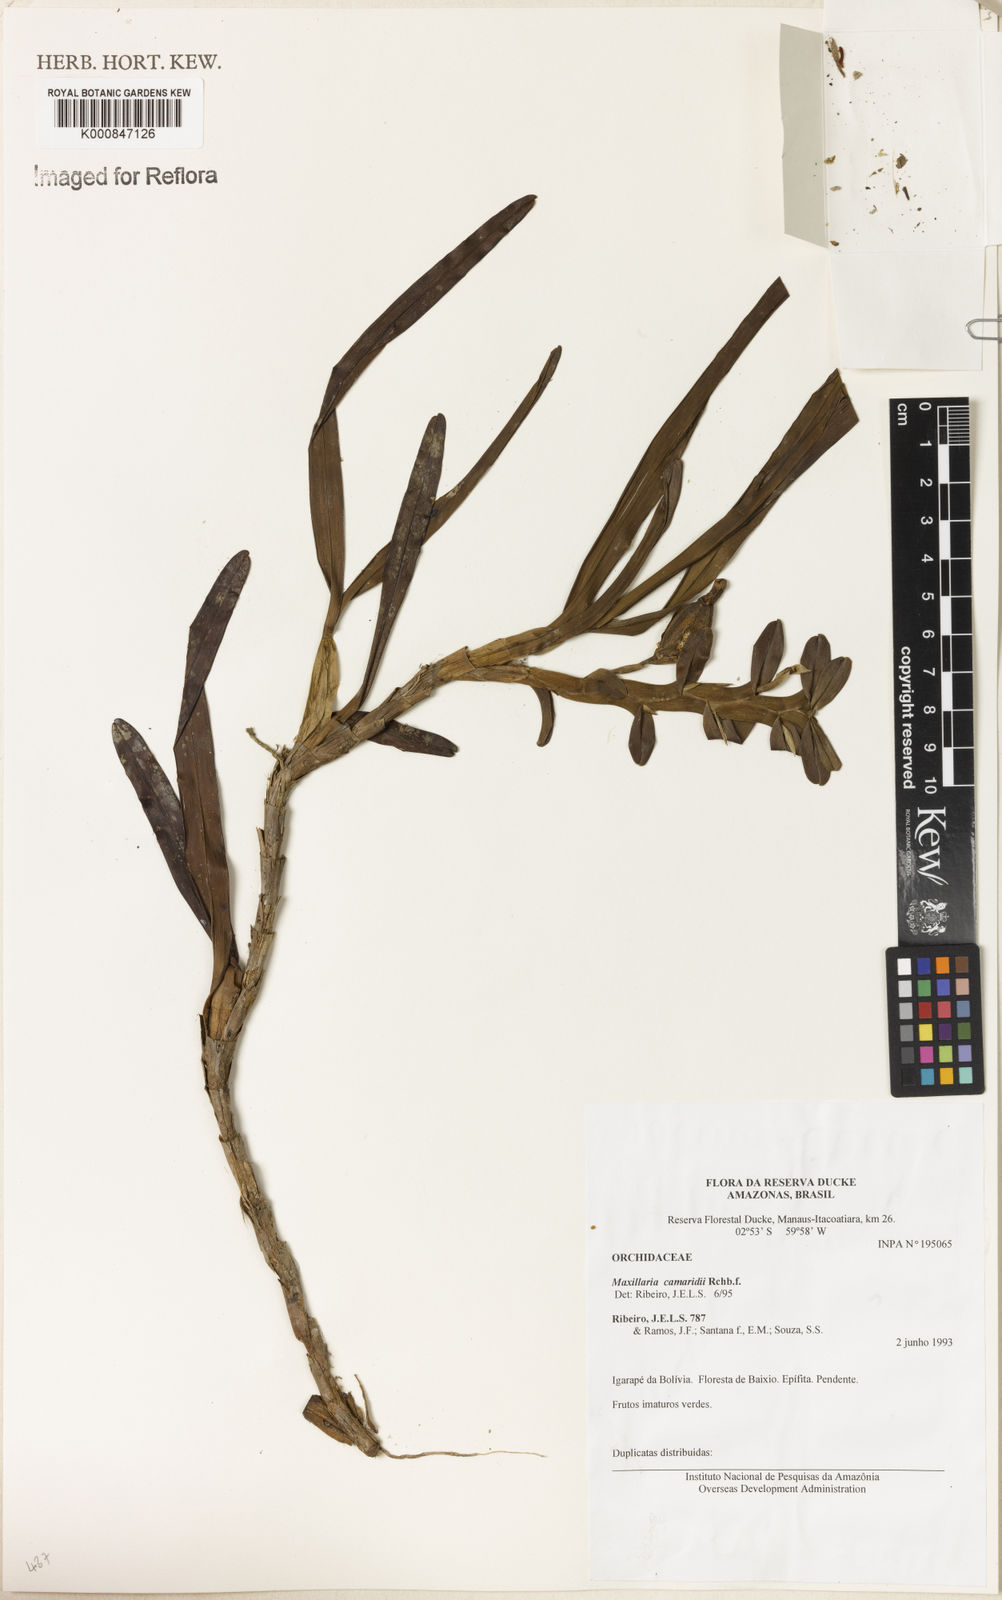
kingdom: Plantae
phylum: Tracheophyta
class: Liliopsida
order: Asparagales
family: Orchidaceae
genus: Maxillaria
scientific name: Maxillaria lutescens
